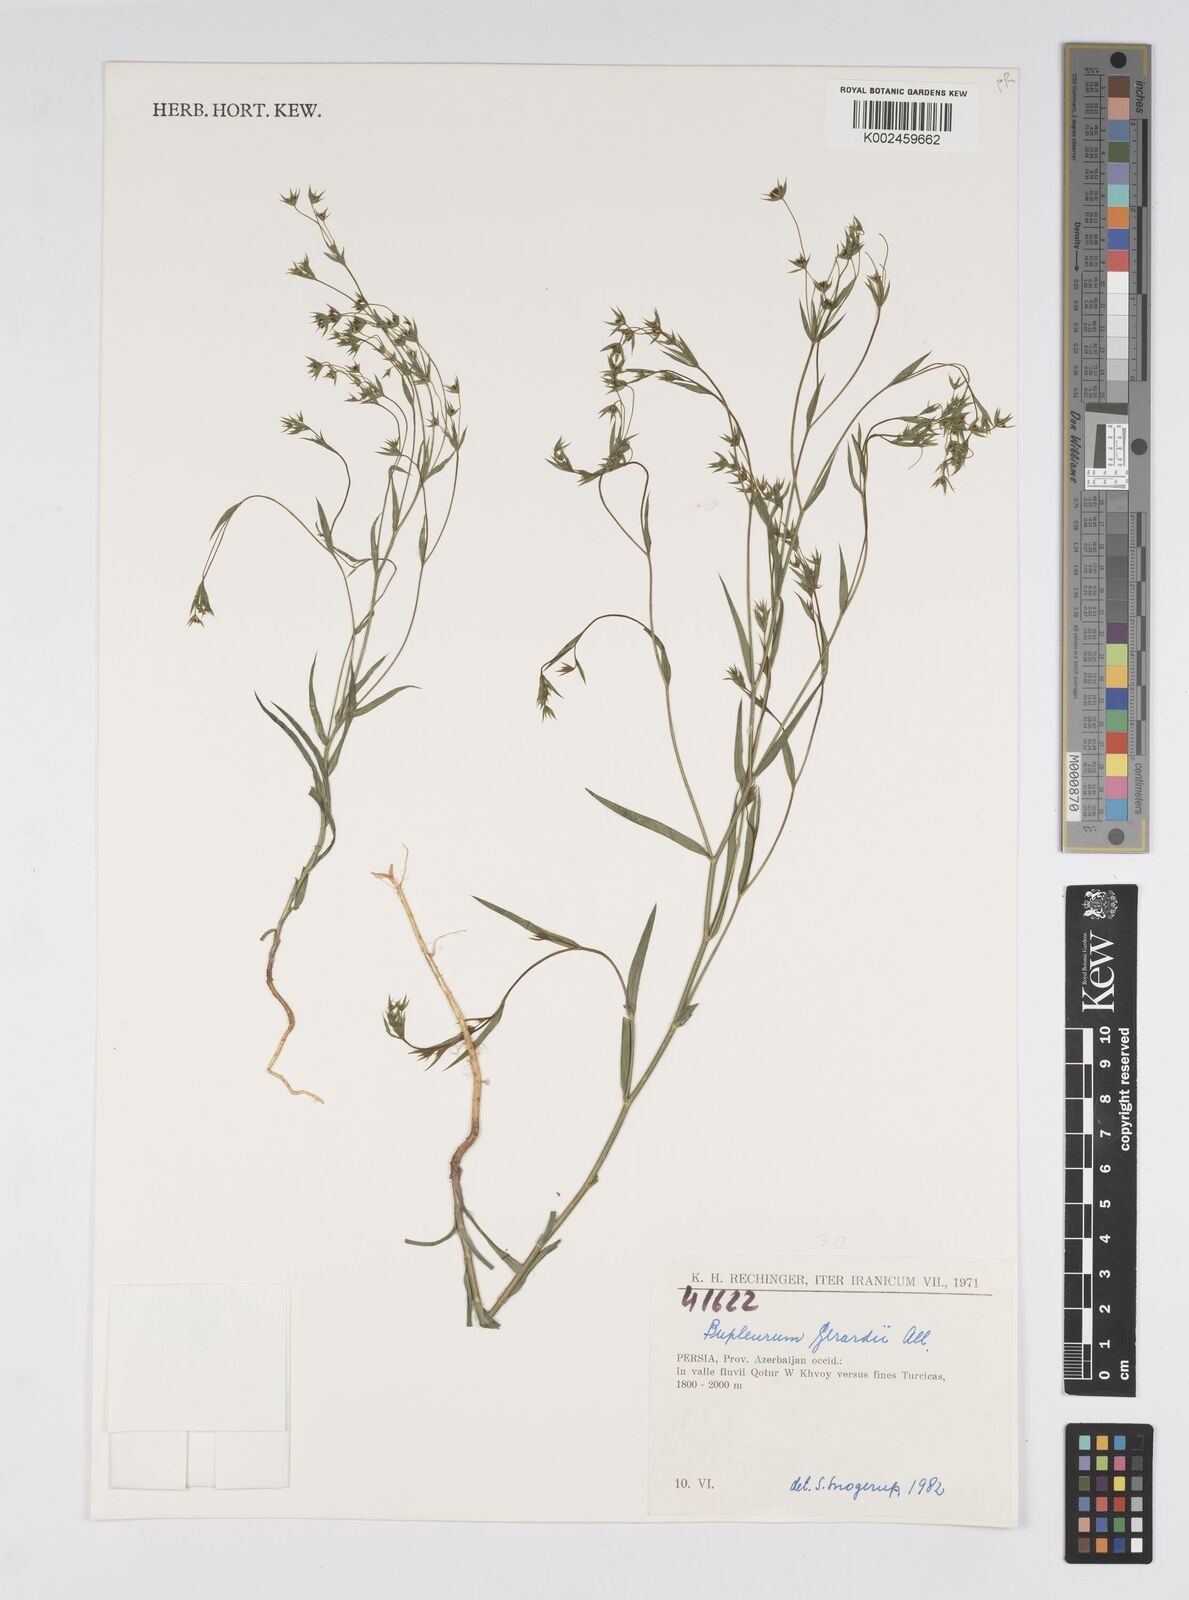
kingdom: Plantae
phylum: Tracheophyta
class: Magnoliopsida
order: Apiales
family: Apiaceae
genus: Bupleurum
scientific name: Bupleurum gerardi
